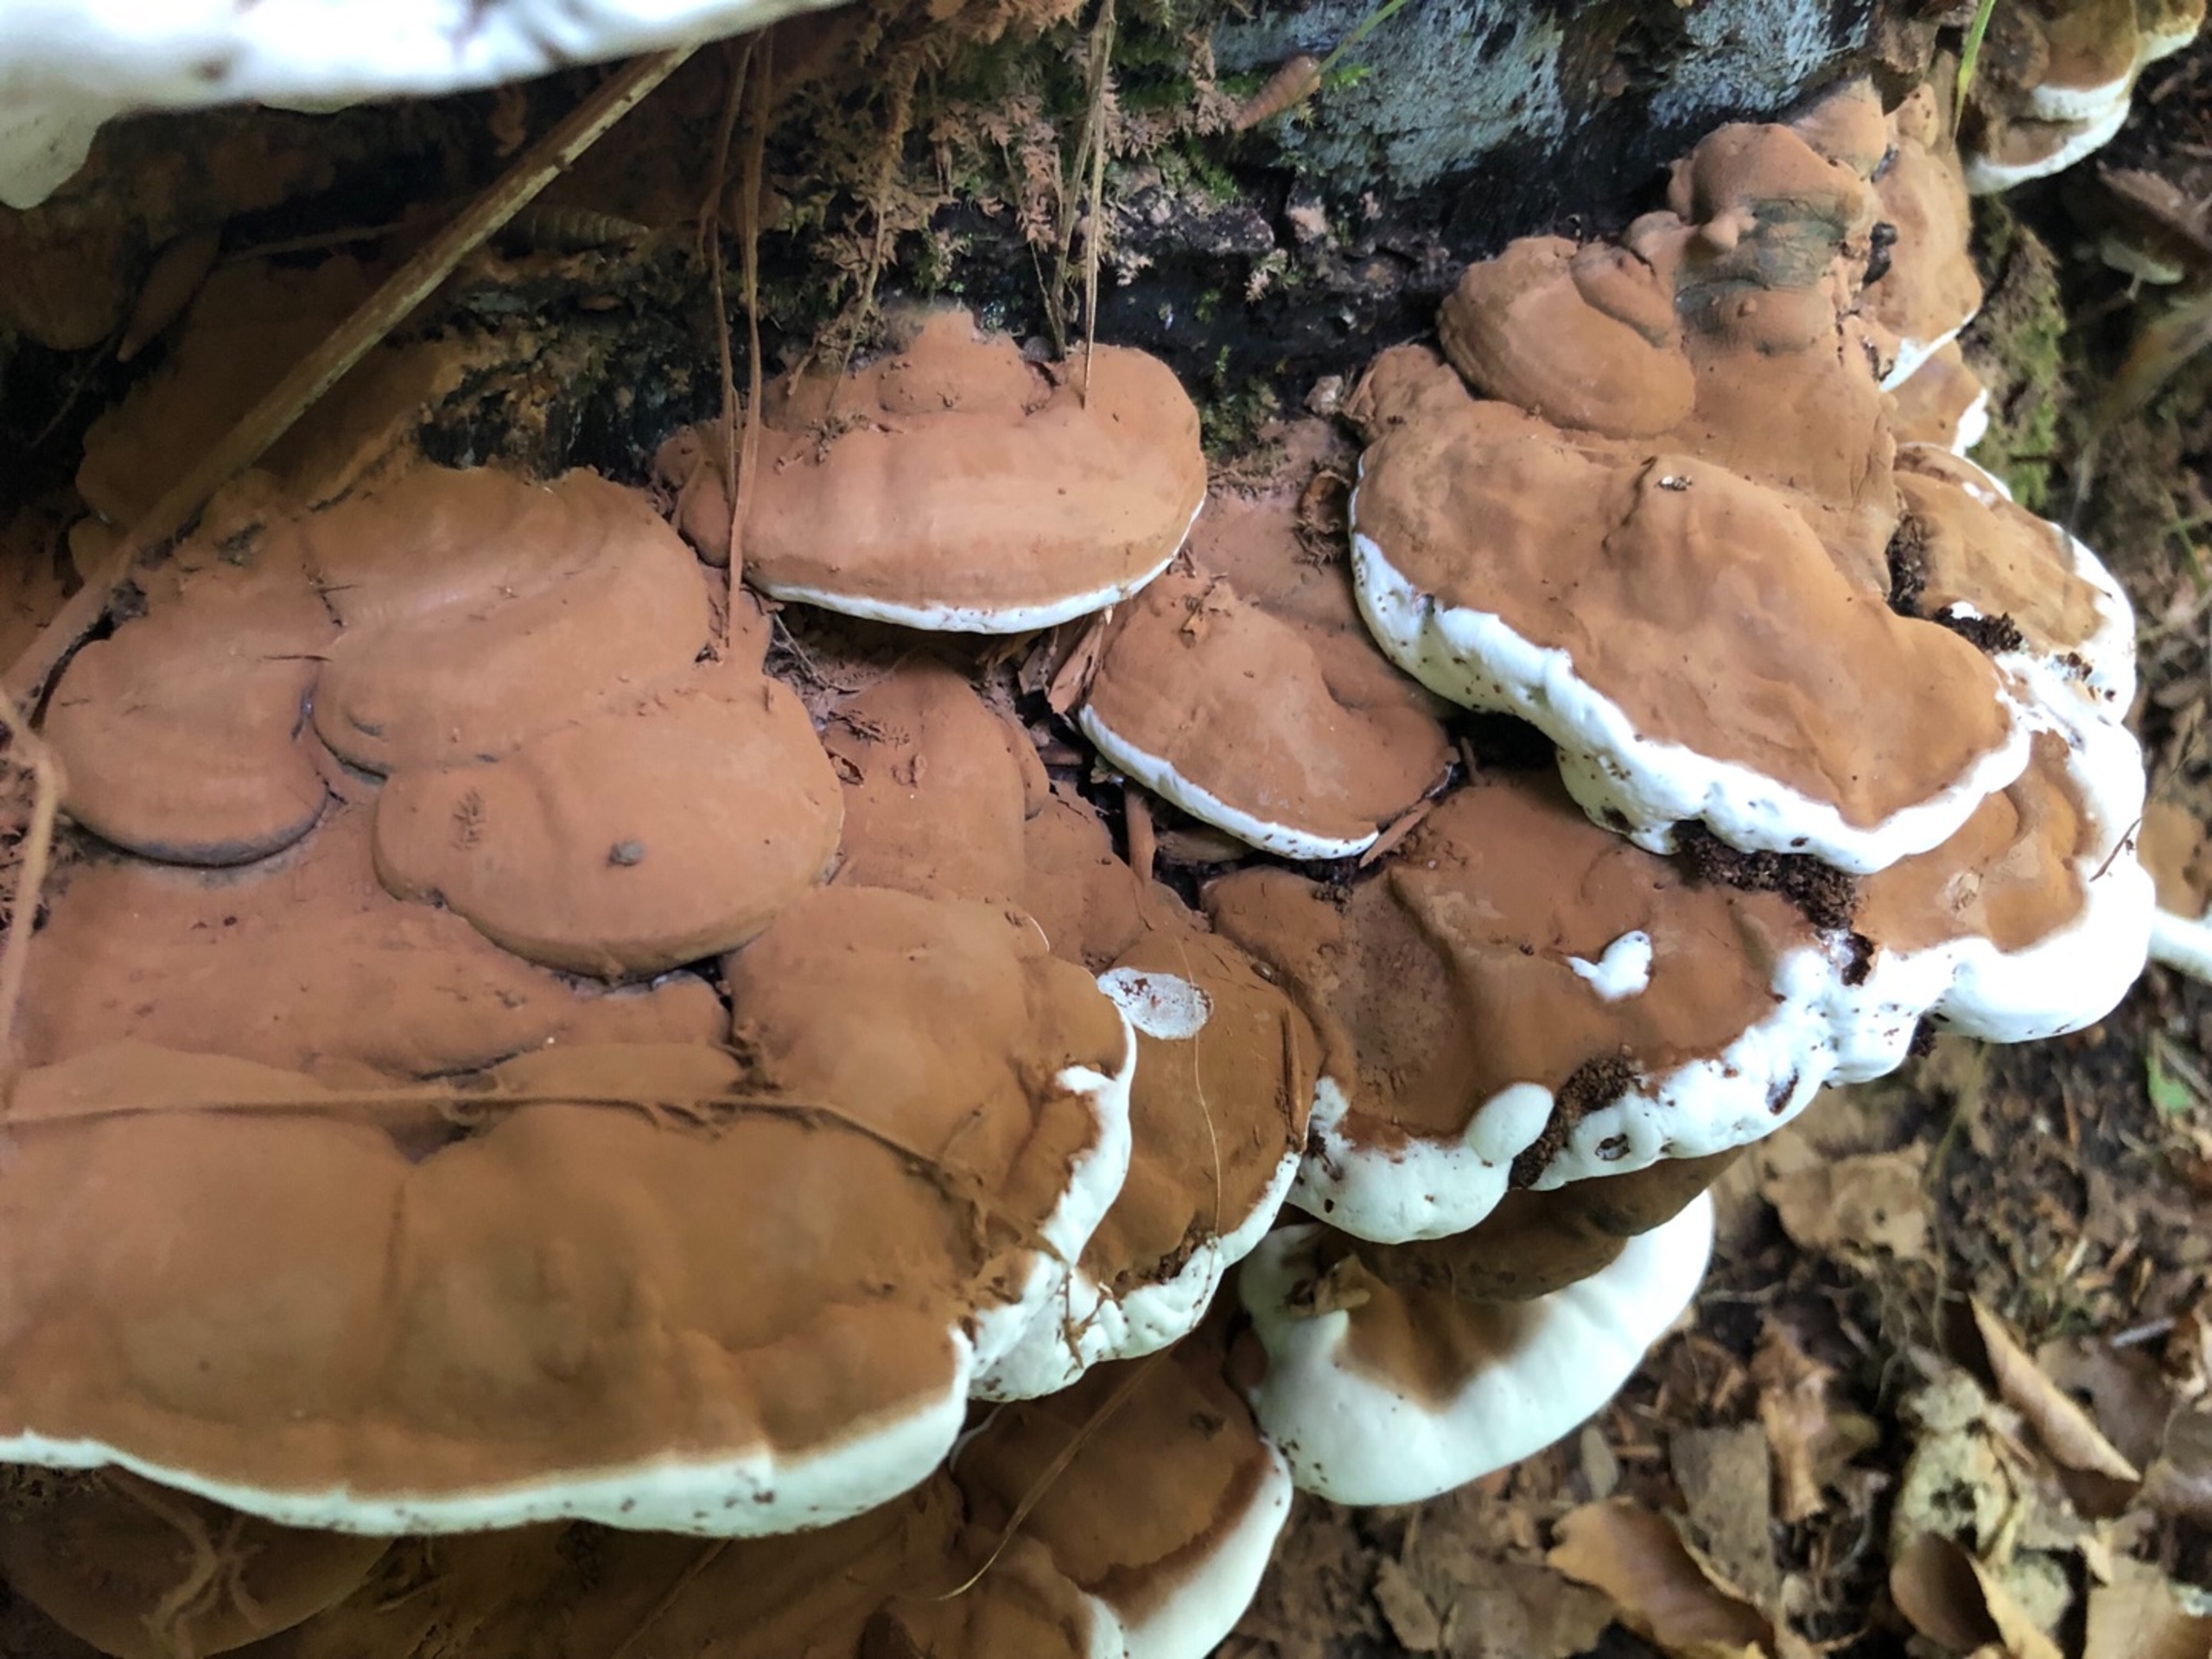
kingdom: Fungi
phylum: Basidiomycota
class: Agaricomycetes
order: Polyporales
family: Polyporaceae
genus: Ganoderma
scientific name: Ganoderma applanatum
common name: Flad lakporesvamp
